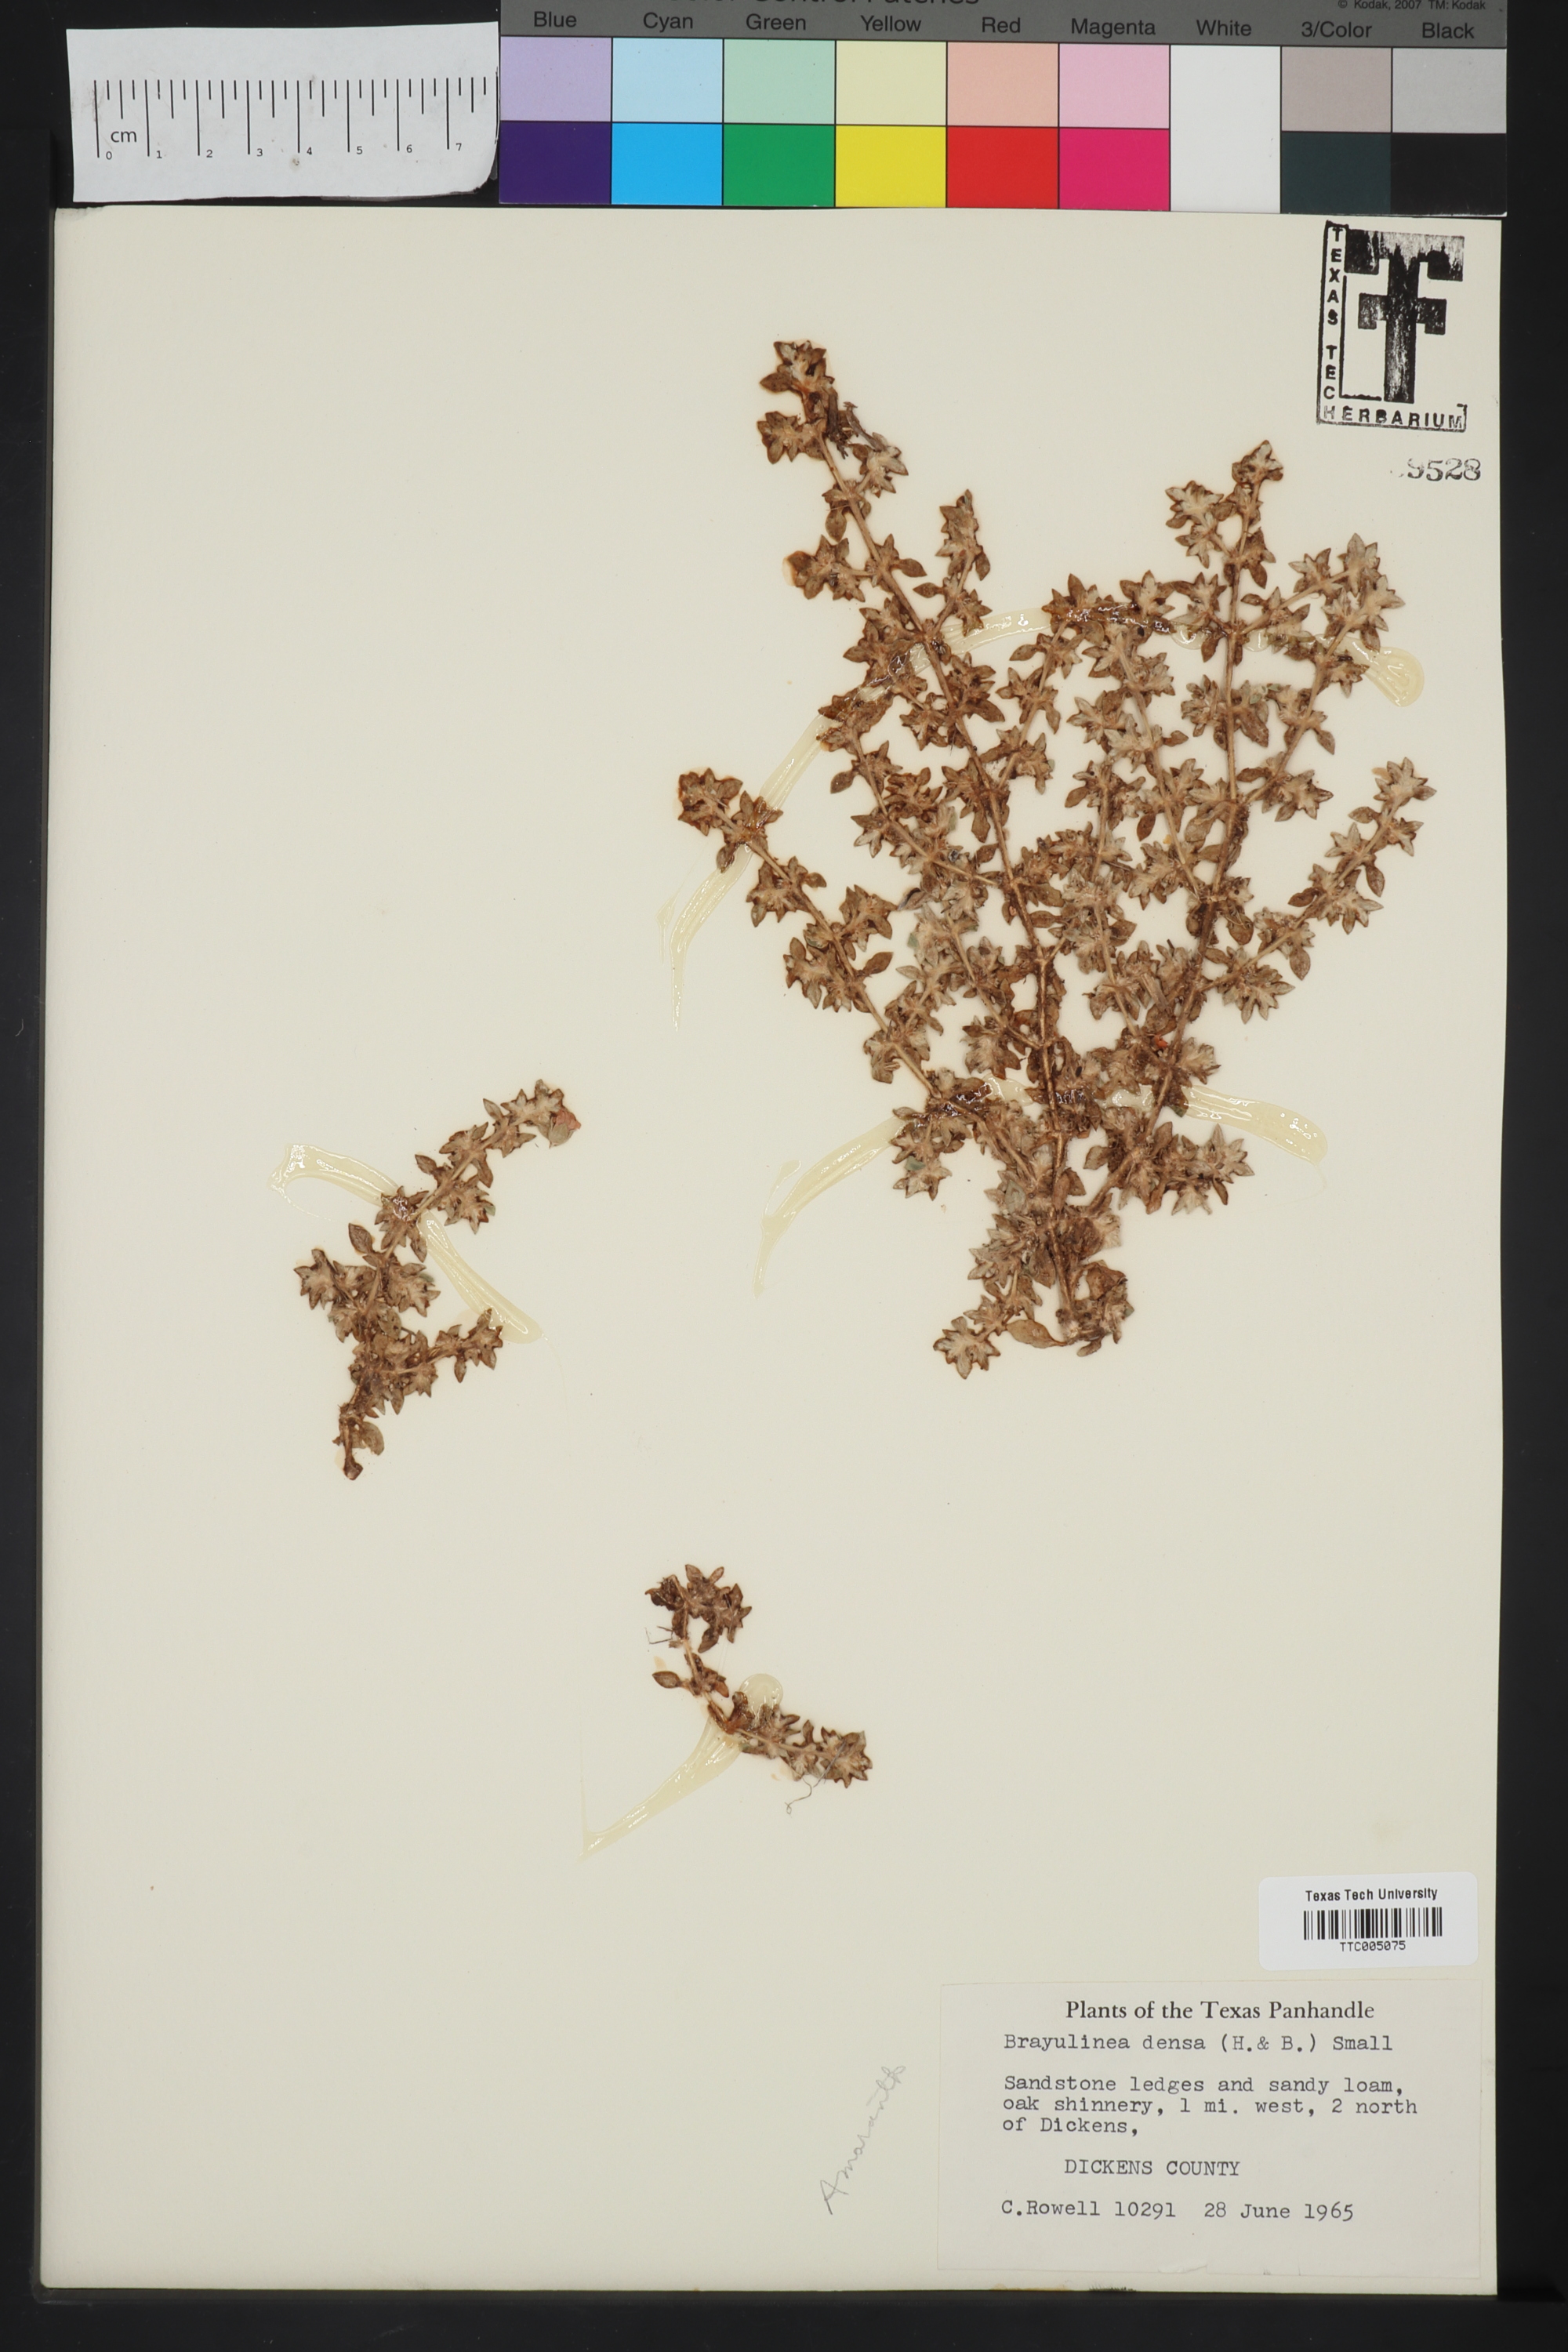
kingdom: Plantae
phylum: Tracheophyta
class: Magnoliopsida
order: Caryophyllales
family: Amaranthaceae
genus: Guilleminea
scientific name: Guilleminea densa
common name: Small matweed
